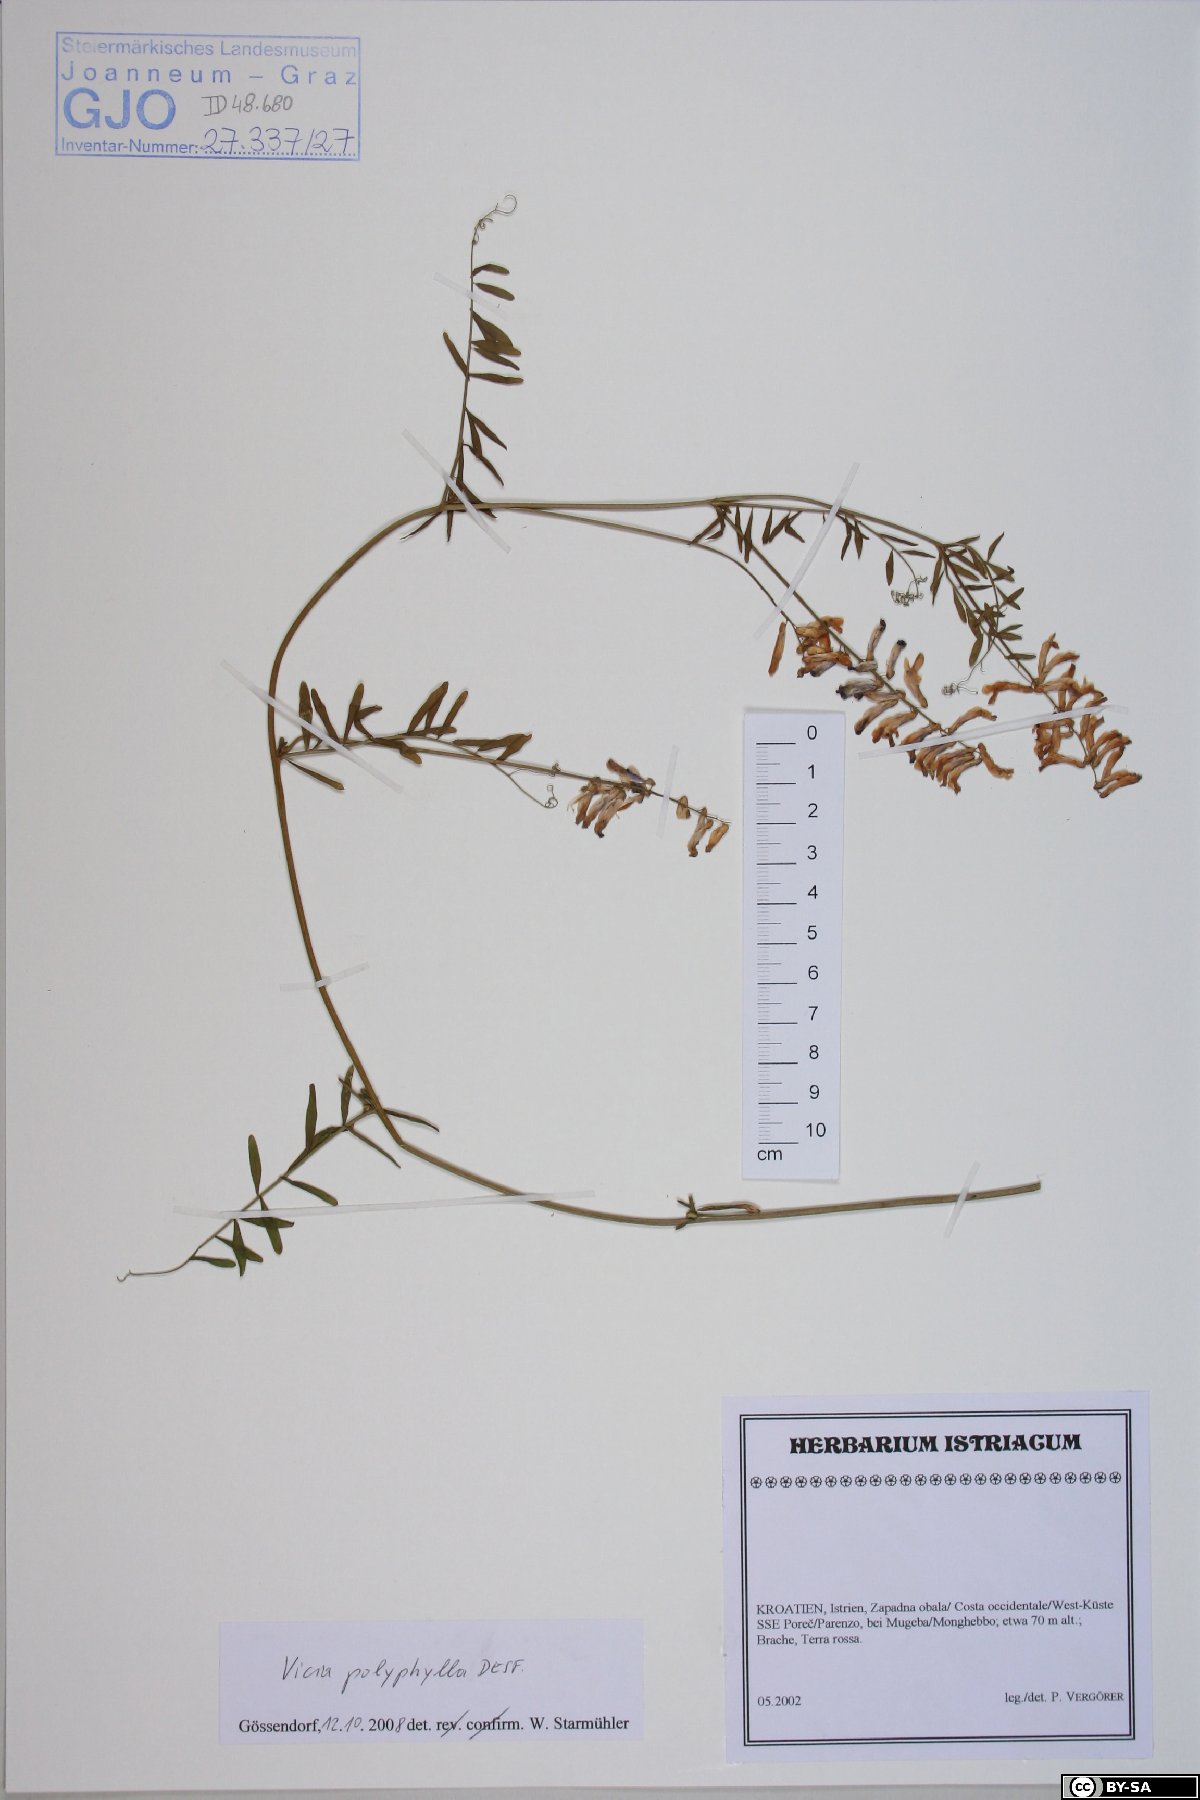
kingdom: Plantae
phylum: Tracheophyta
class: Magnoliopsida
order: Fabales
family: Fabaceae
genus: Vicia
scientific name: Vicia tenuifolia
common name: Fine-leaved vetch
